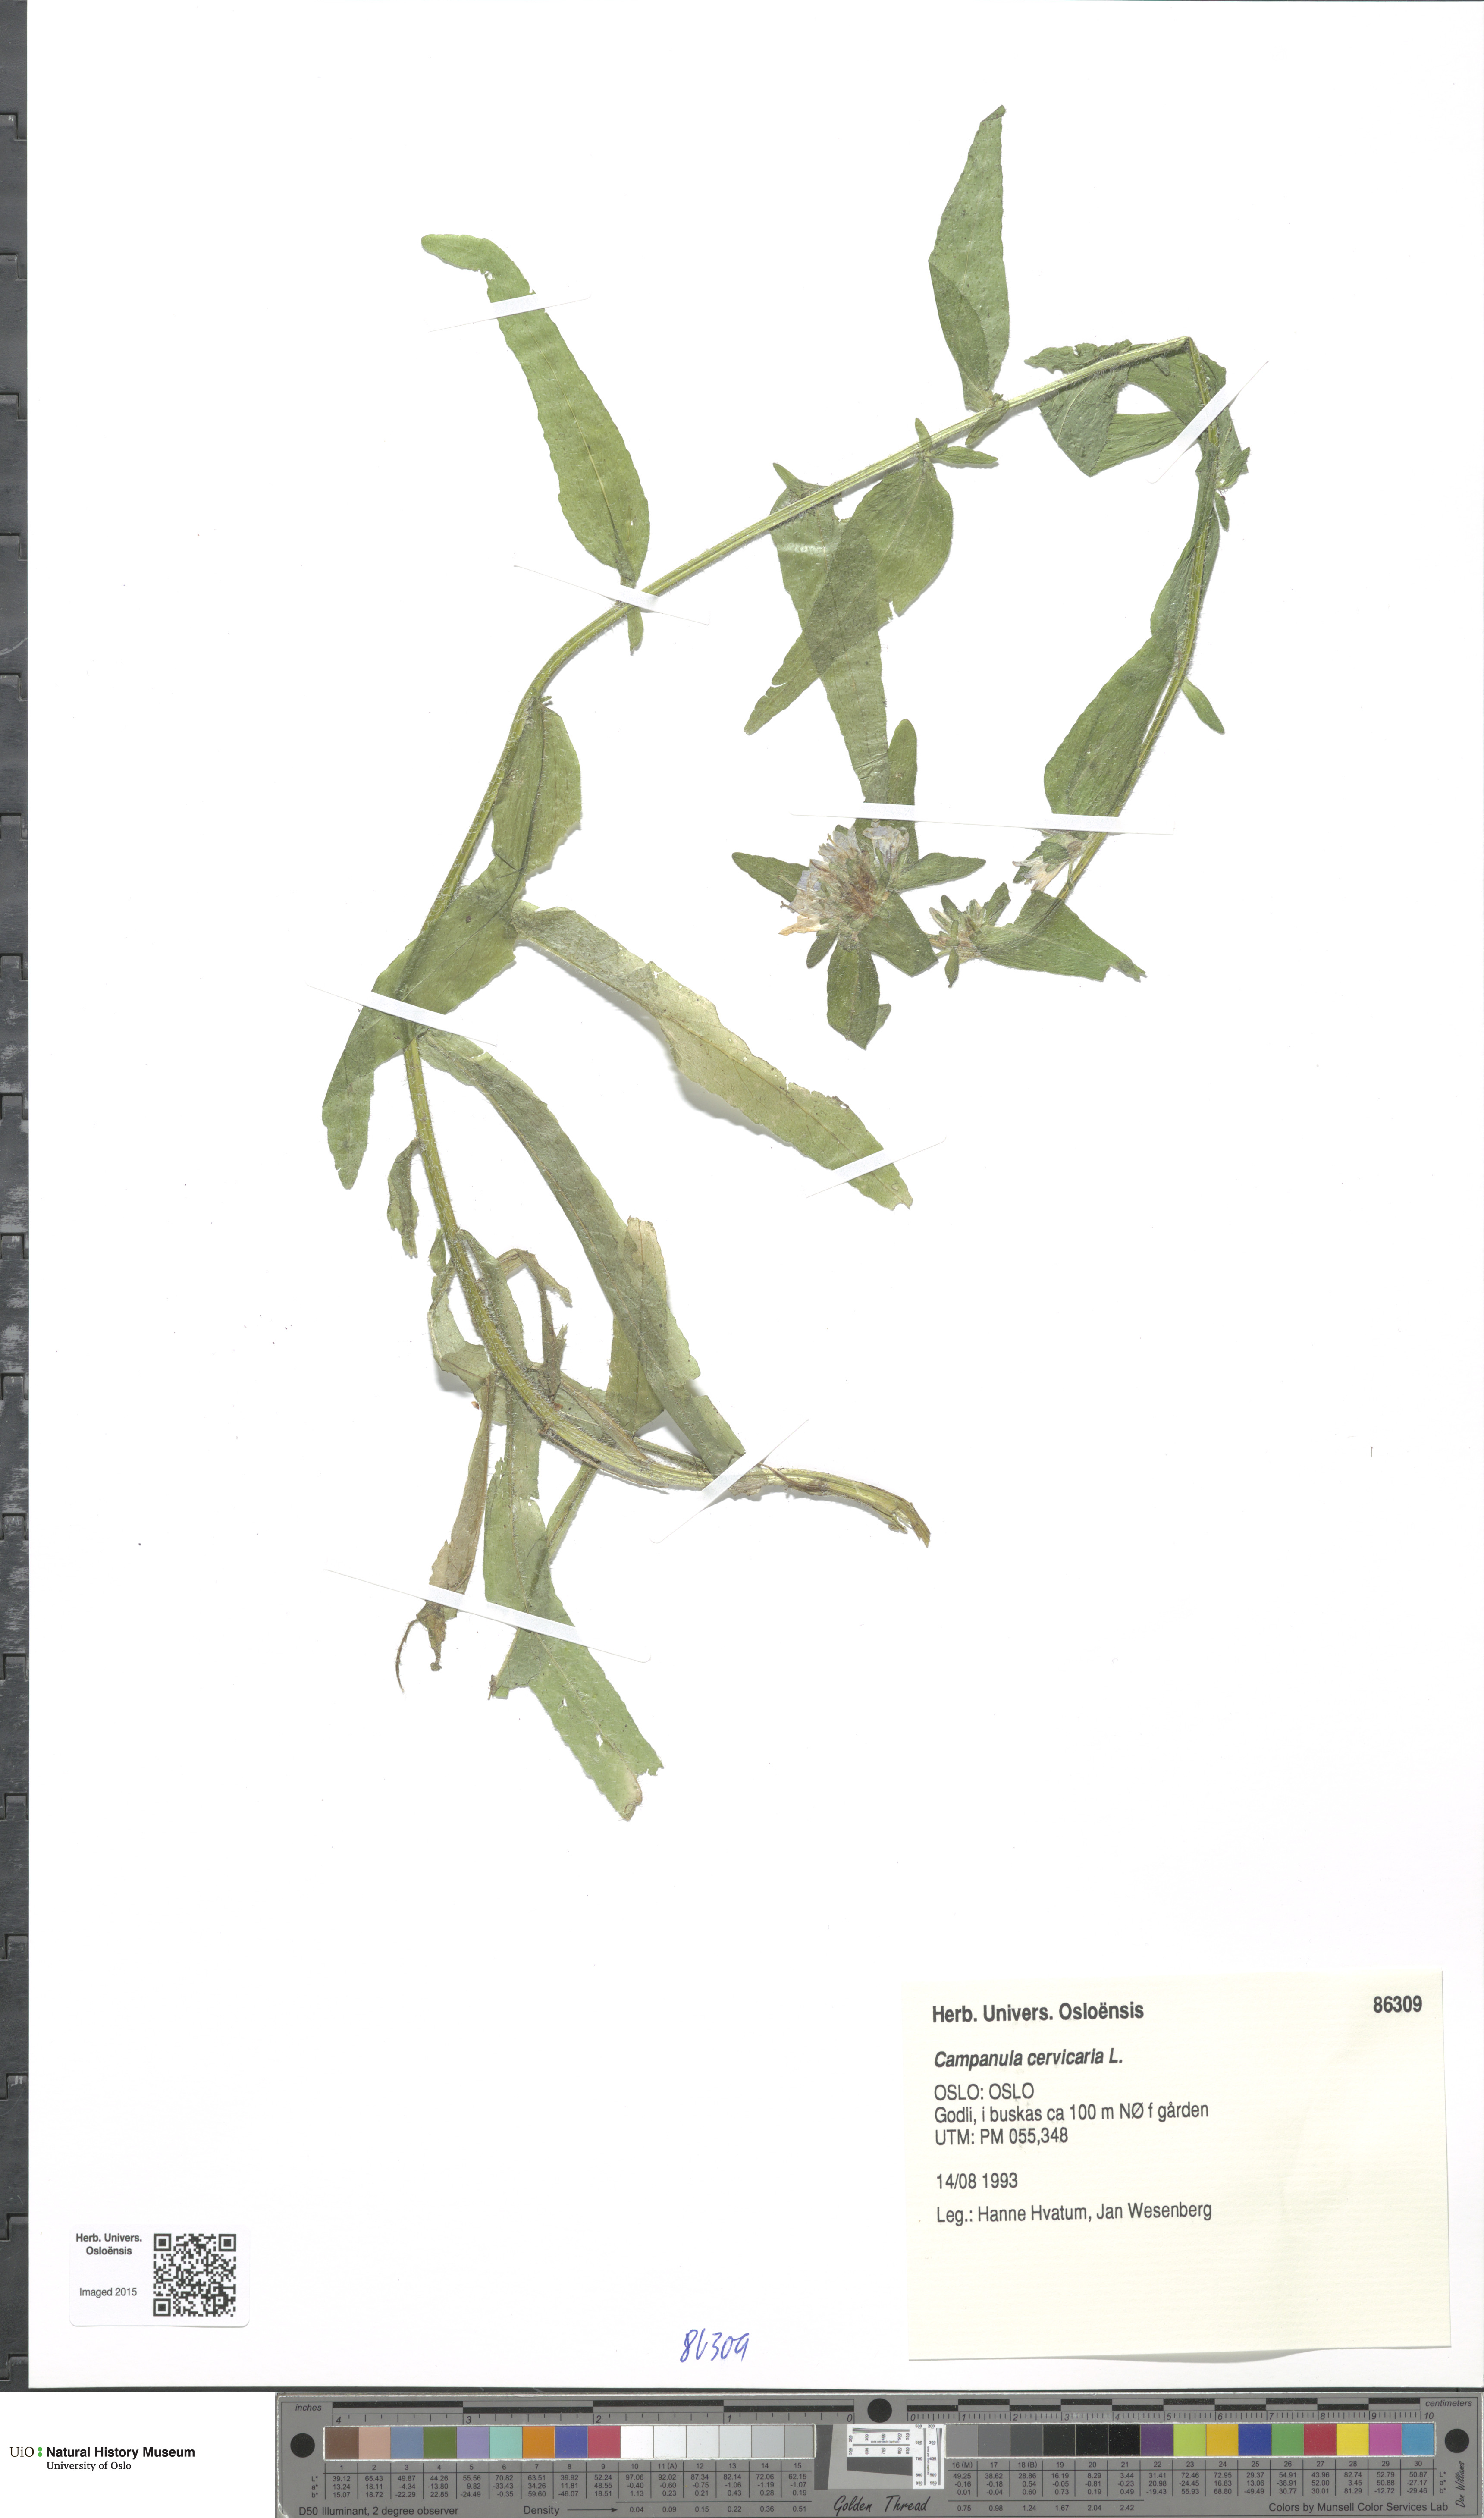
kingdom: Plantae
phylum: Tracheophyta
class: Magnoliopsida
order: Asterales
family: Campanulaceae
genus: Campanula
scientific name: Campanula cervicaria
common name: Bristly bellflower
